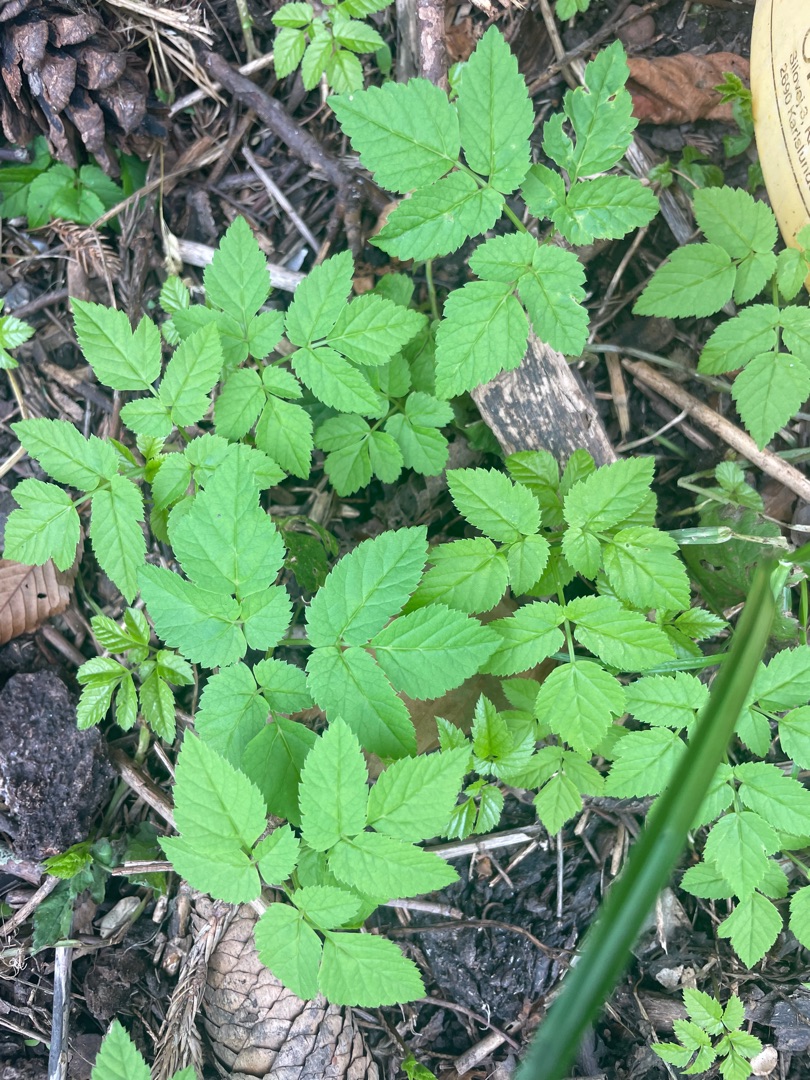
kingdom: Plantae
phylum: Tracheophyta
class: Magnoliopsida
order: Apiales
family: Apiaceae
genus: Aegopodium
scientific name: Aegopodium podagraria
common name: Skvalderkål
